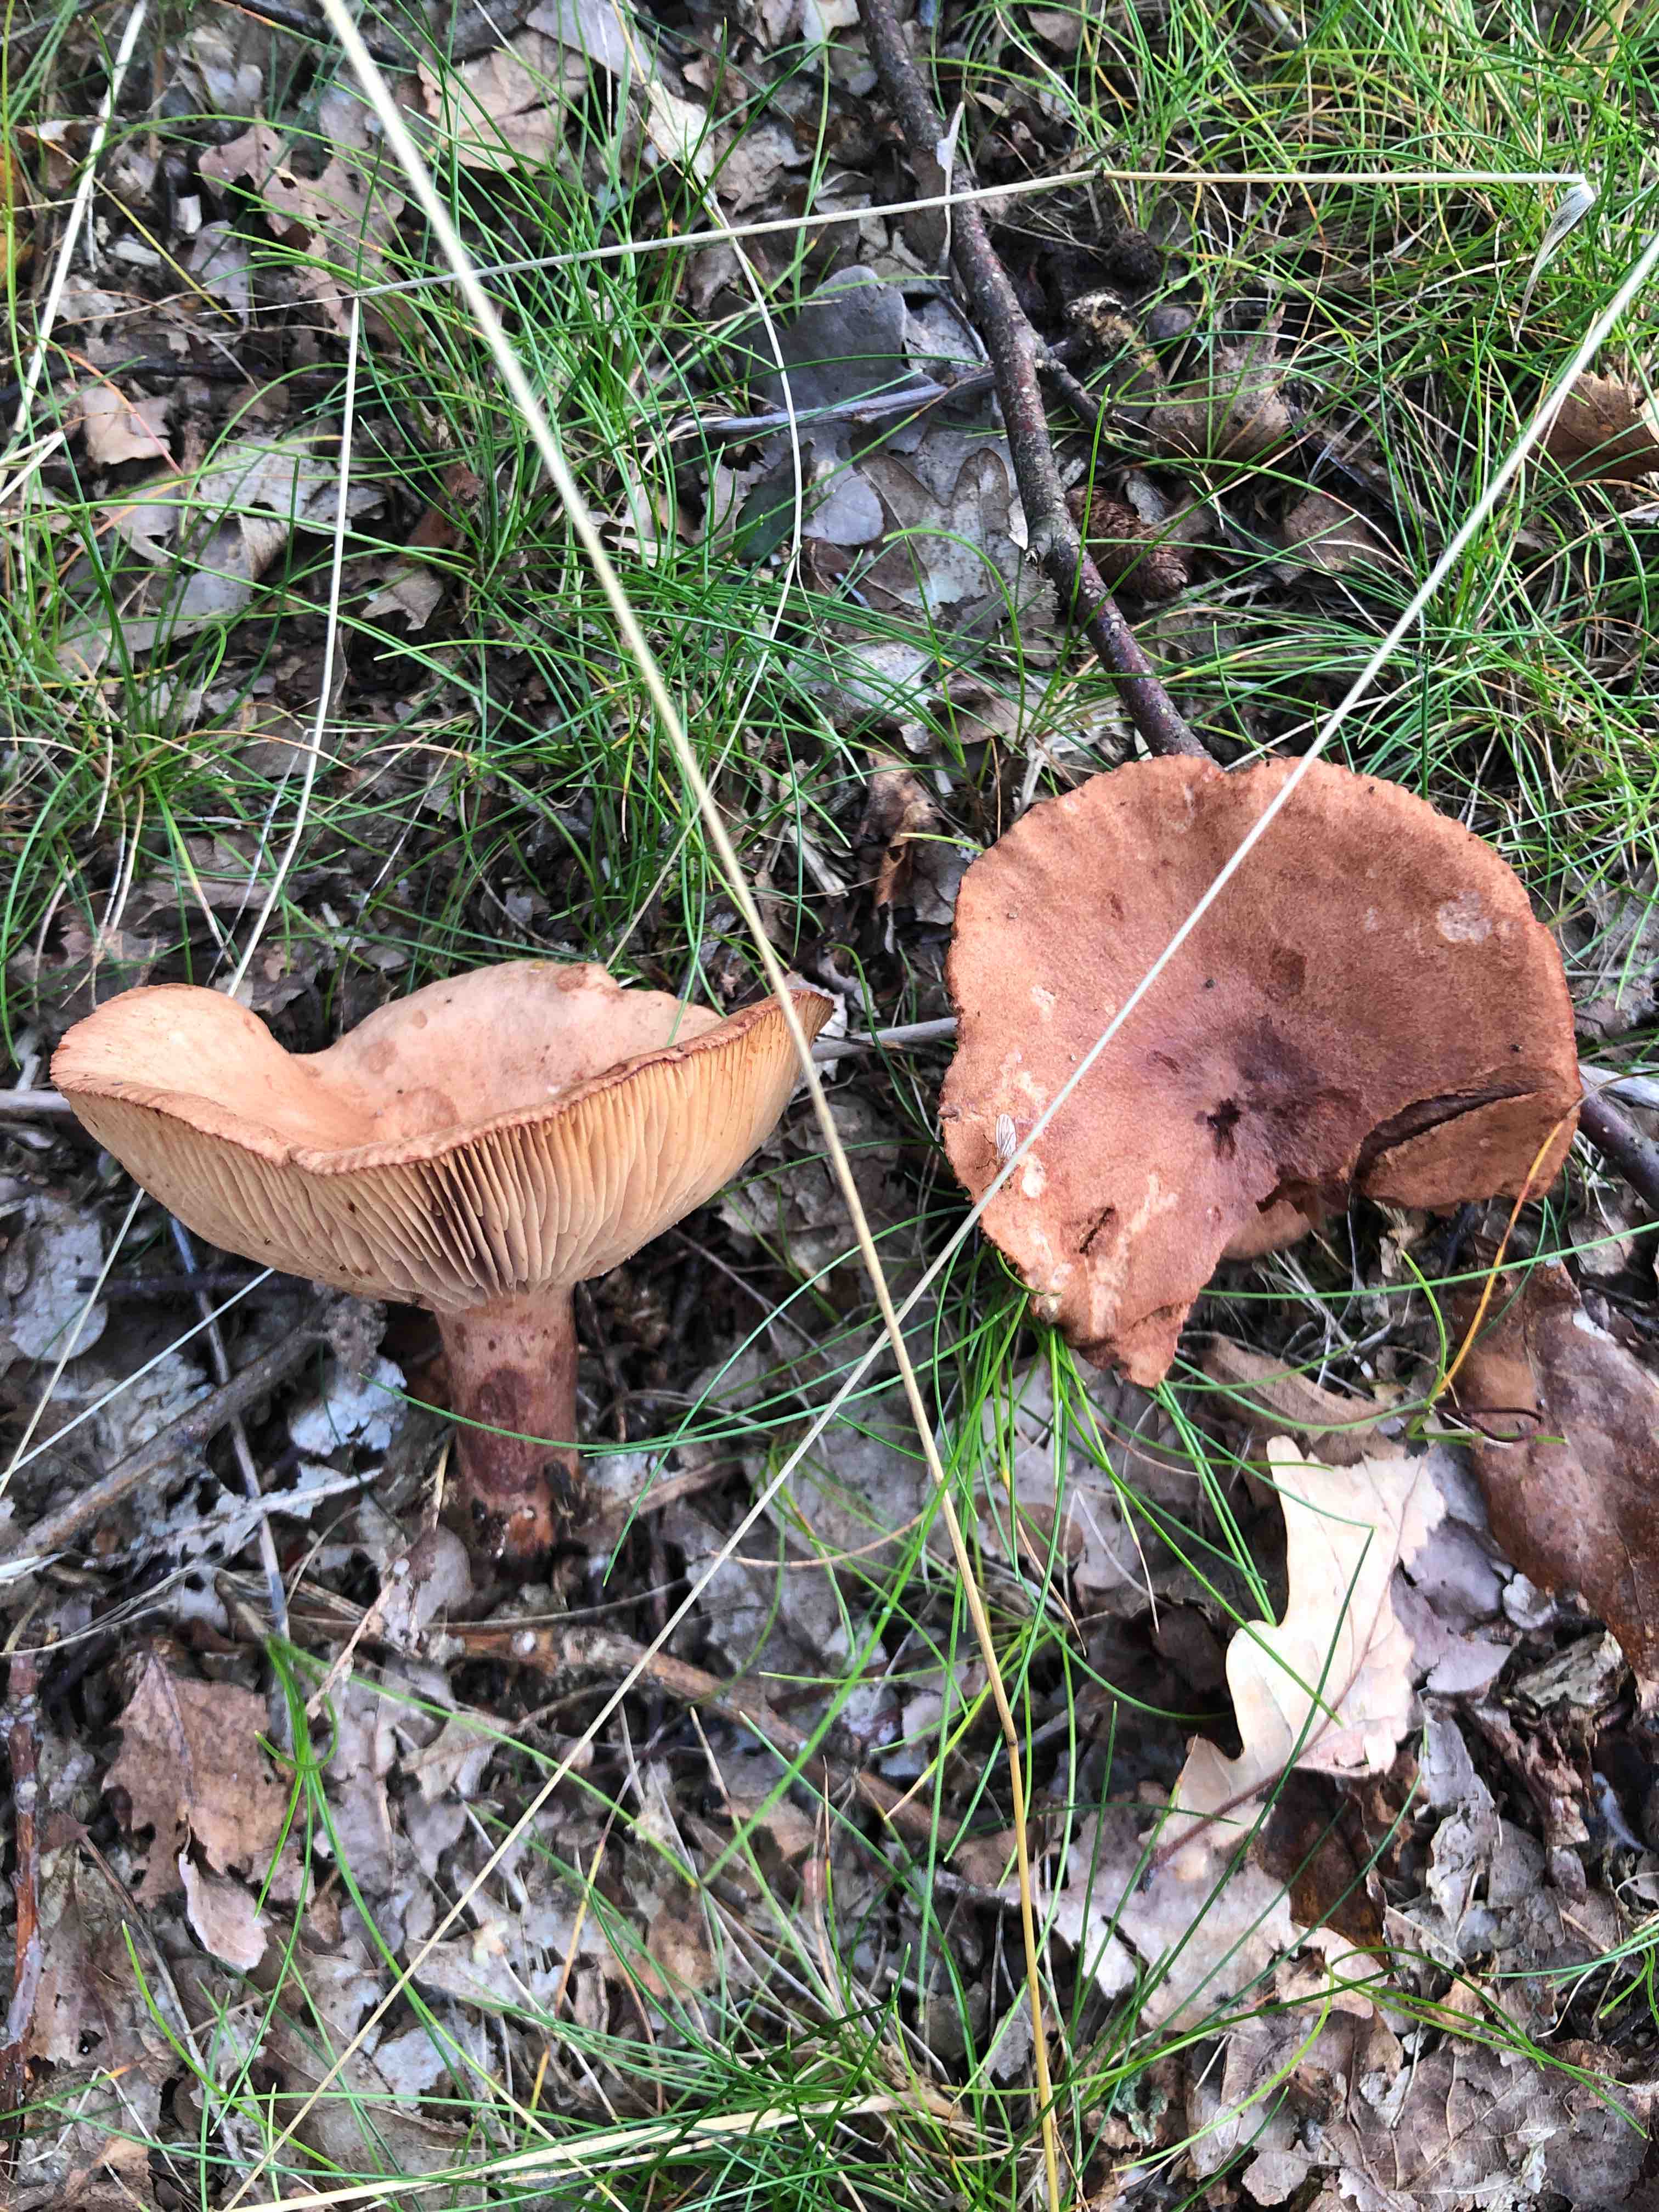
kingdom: Fungi
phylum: Basidiomycota
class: Agaricomycetes
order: Russulales
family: Russulaceae
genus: Lactarius
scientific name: Lactarius quietus
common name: ege-mælkehat
